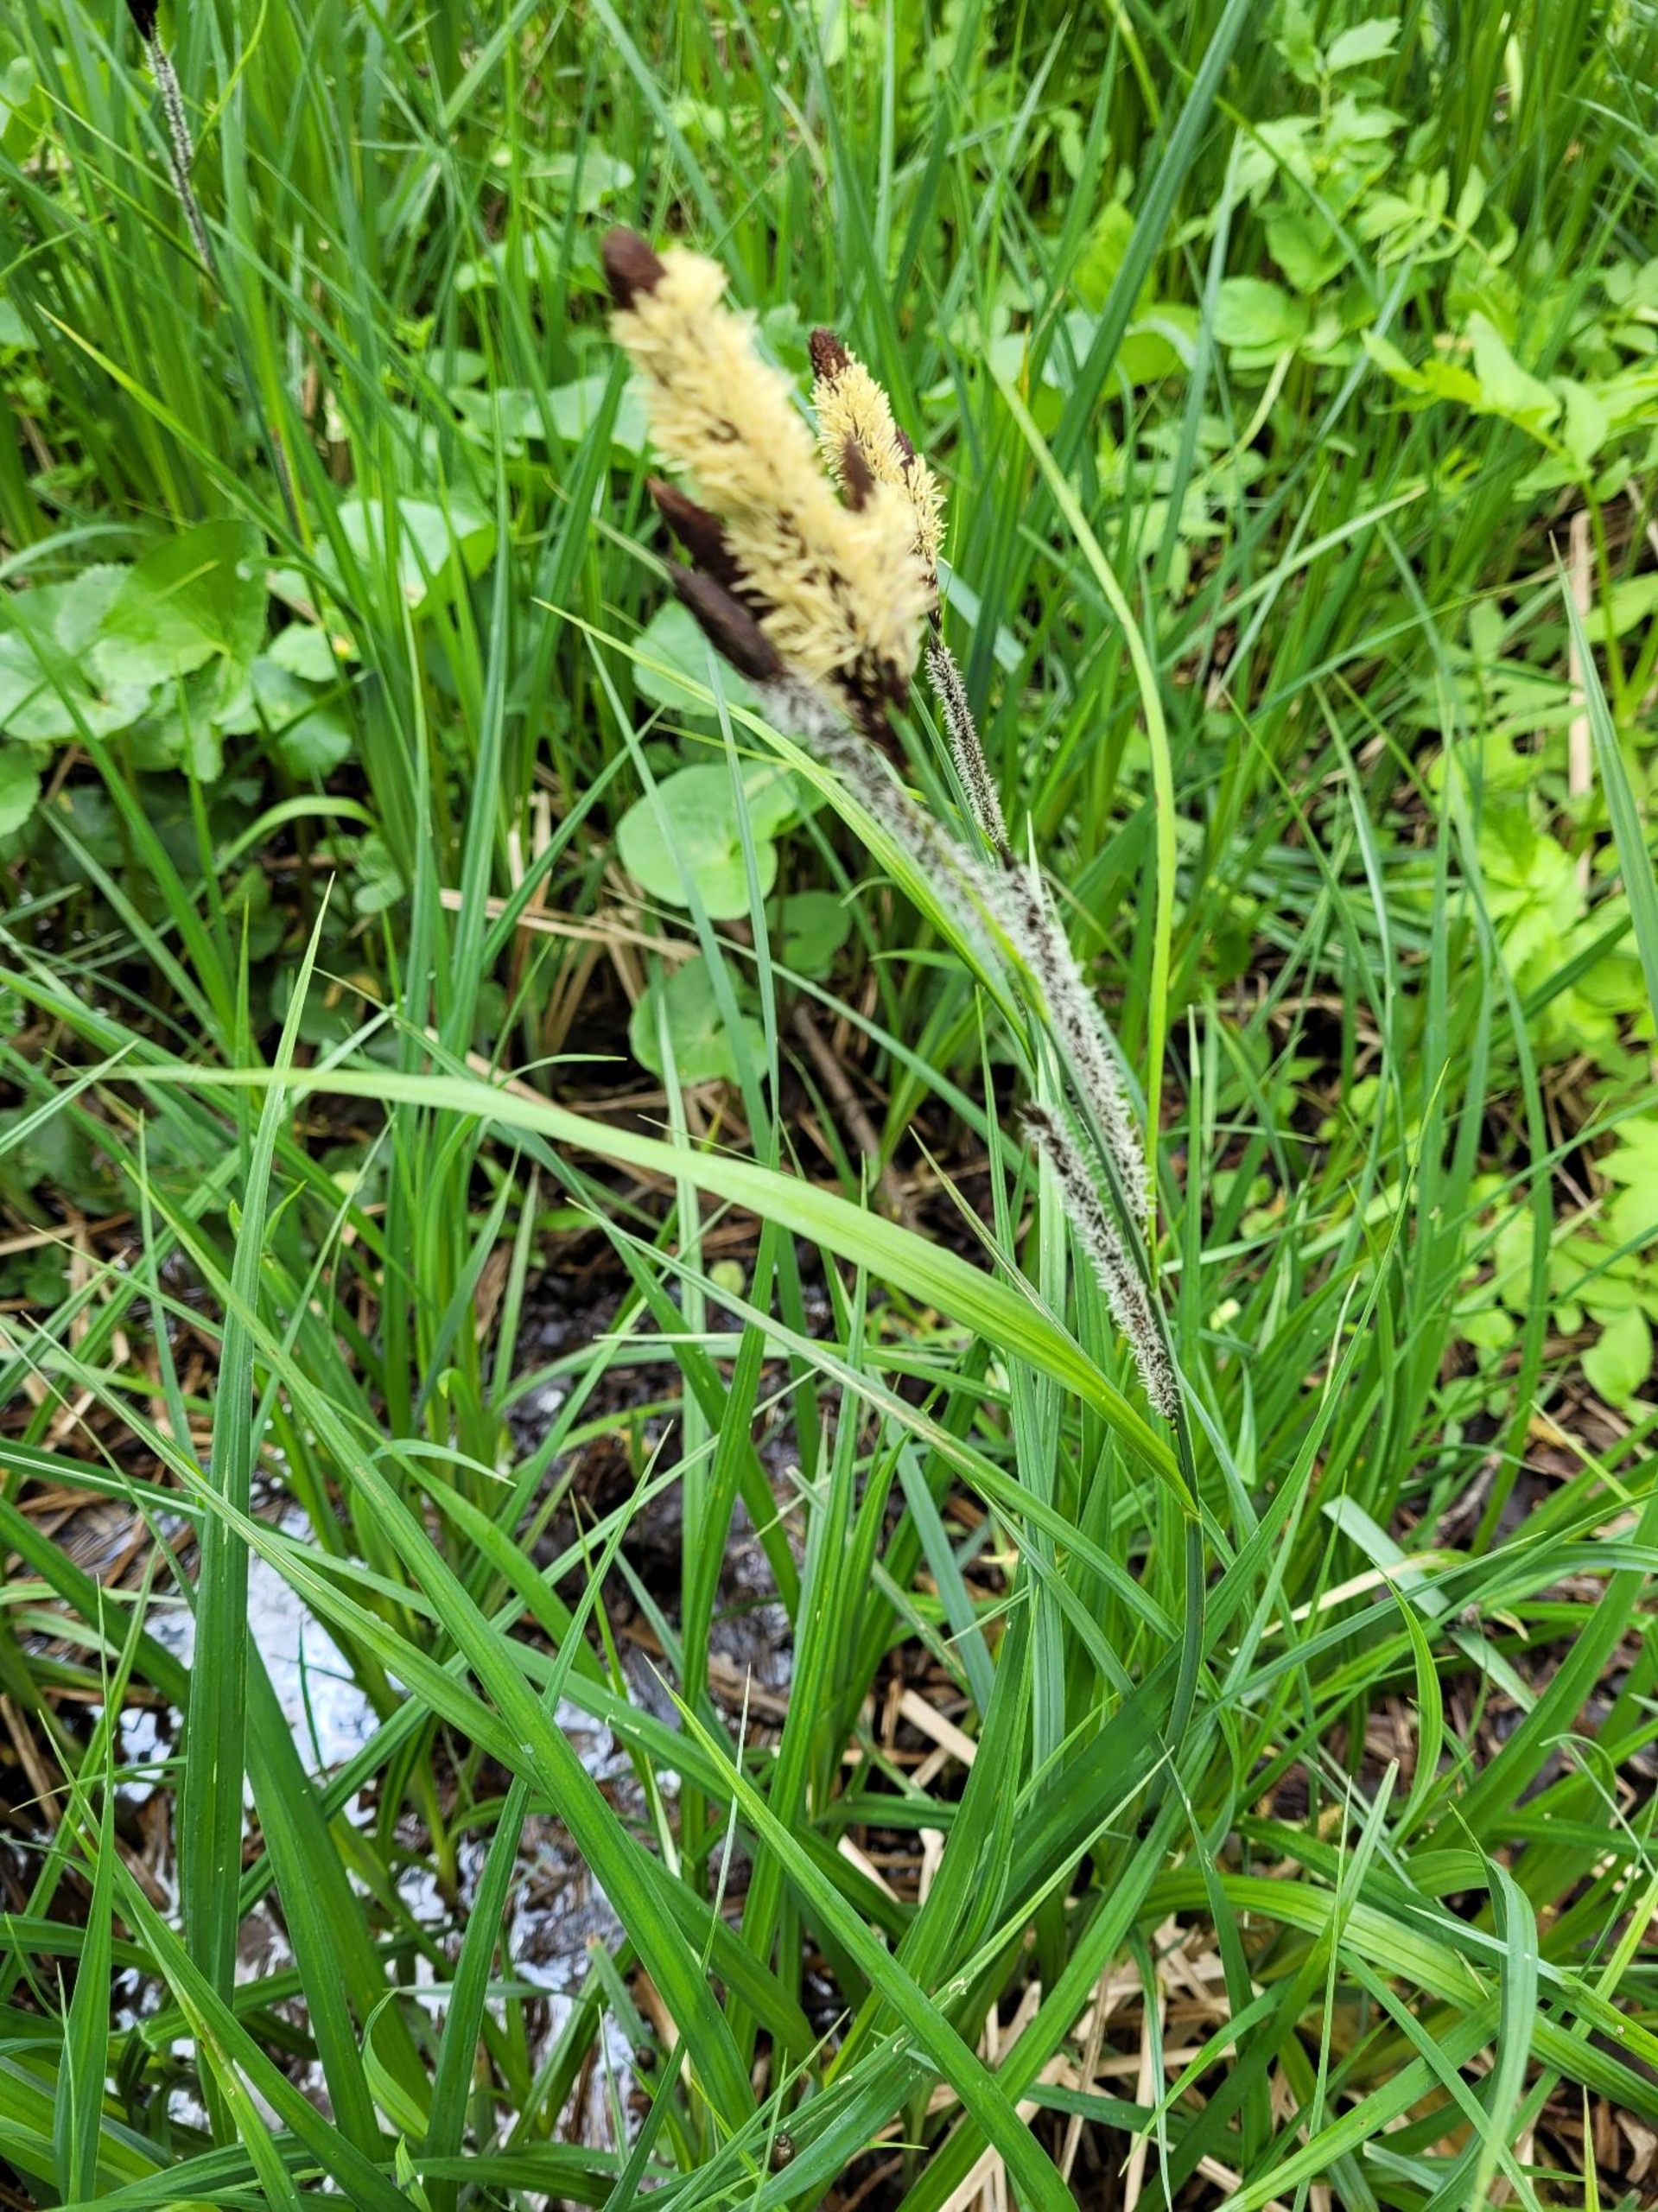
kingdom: Plantae
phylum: Tracheophyta
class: Liliopsida
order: Poales
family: Cyperaceae
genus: Carex
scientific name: Carex acutiformis
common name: Kær-star
